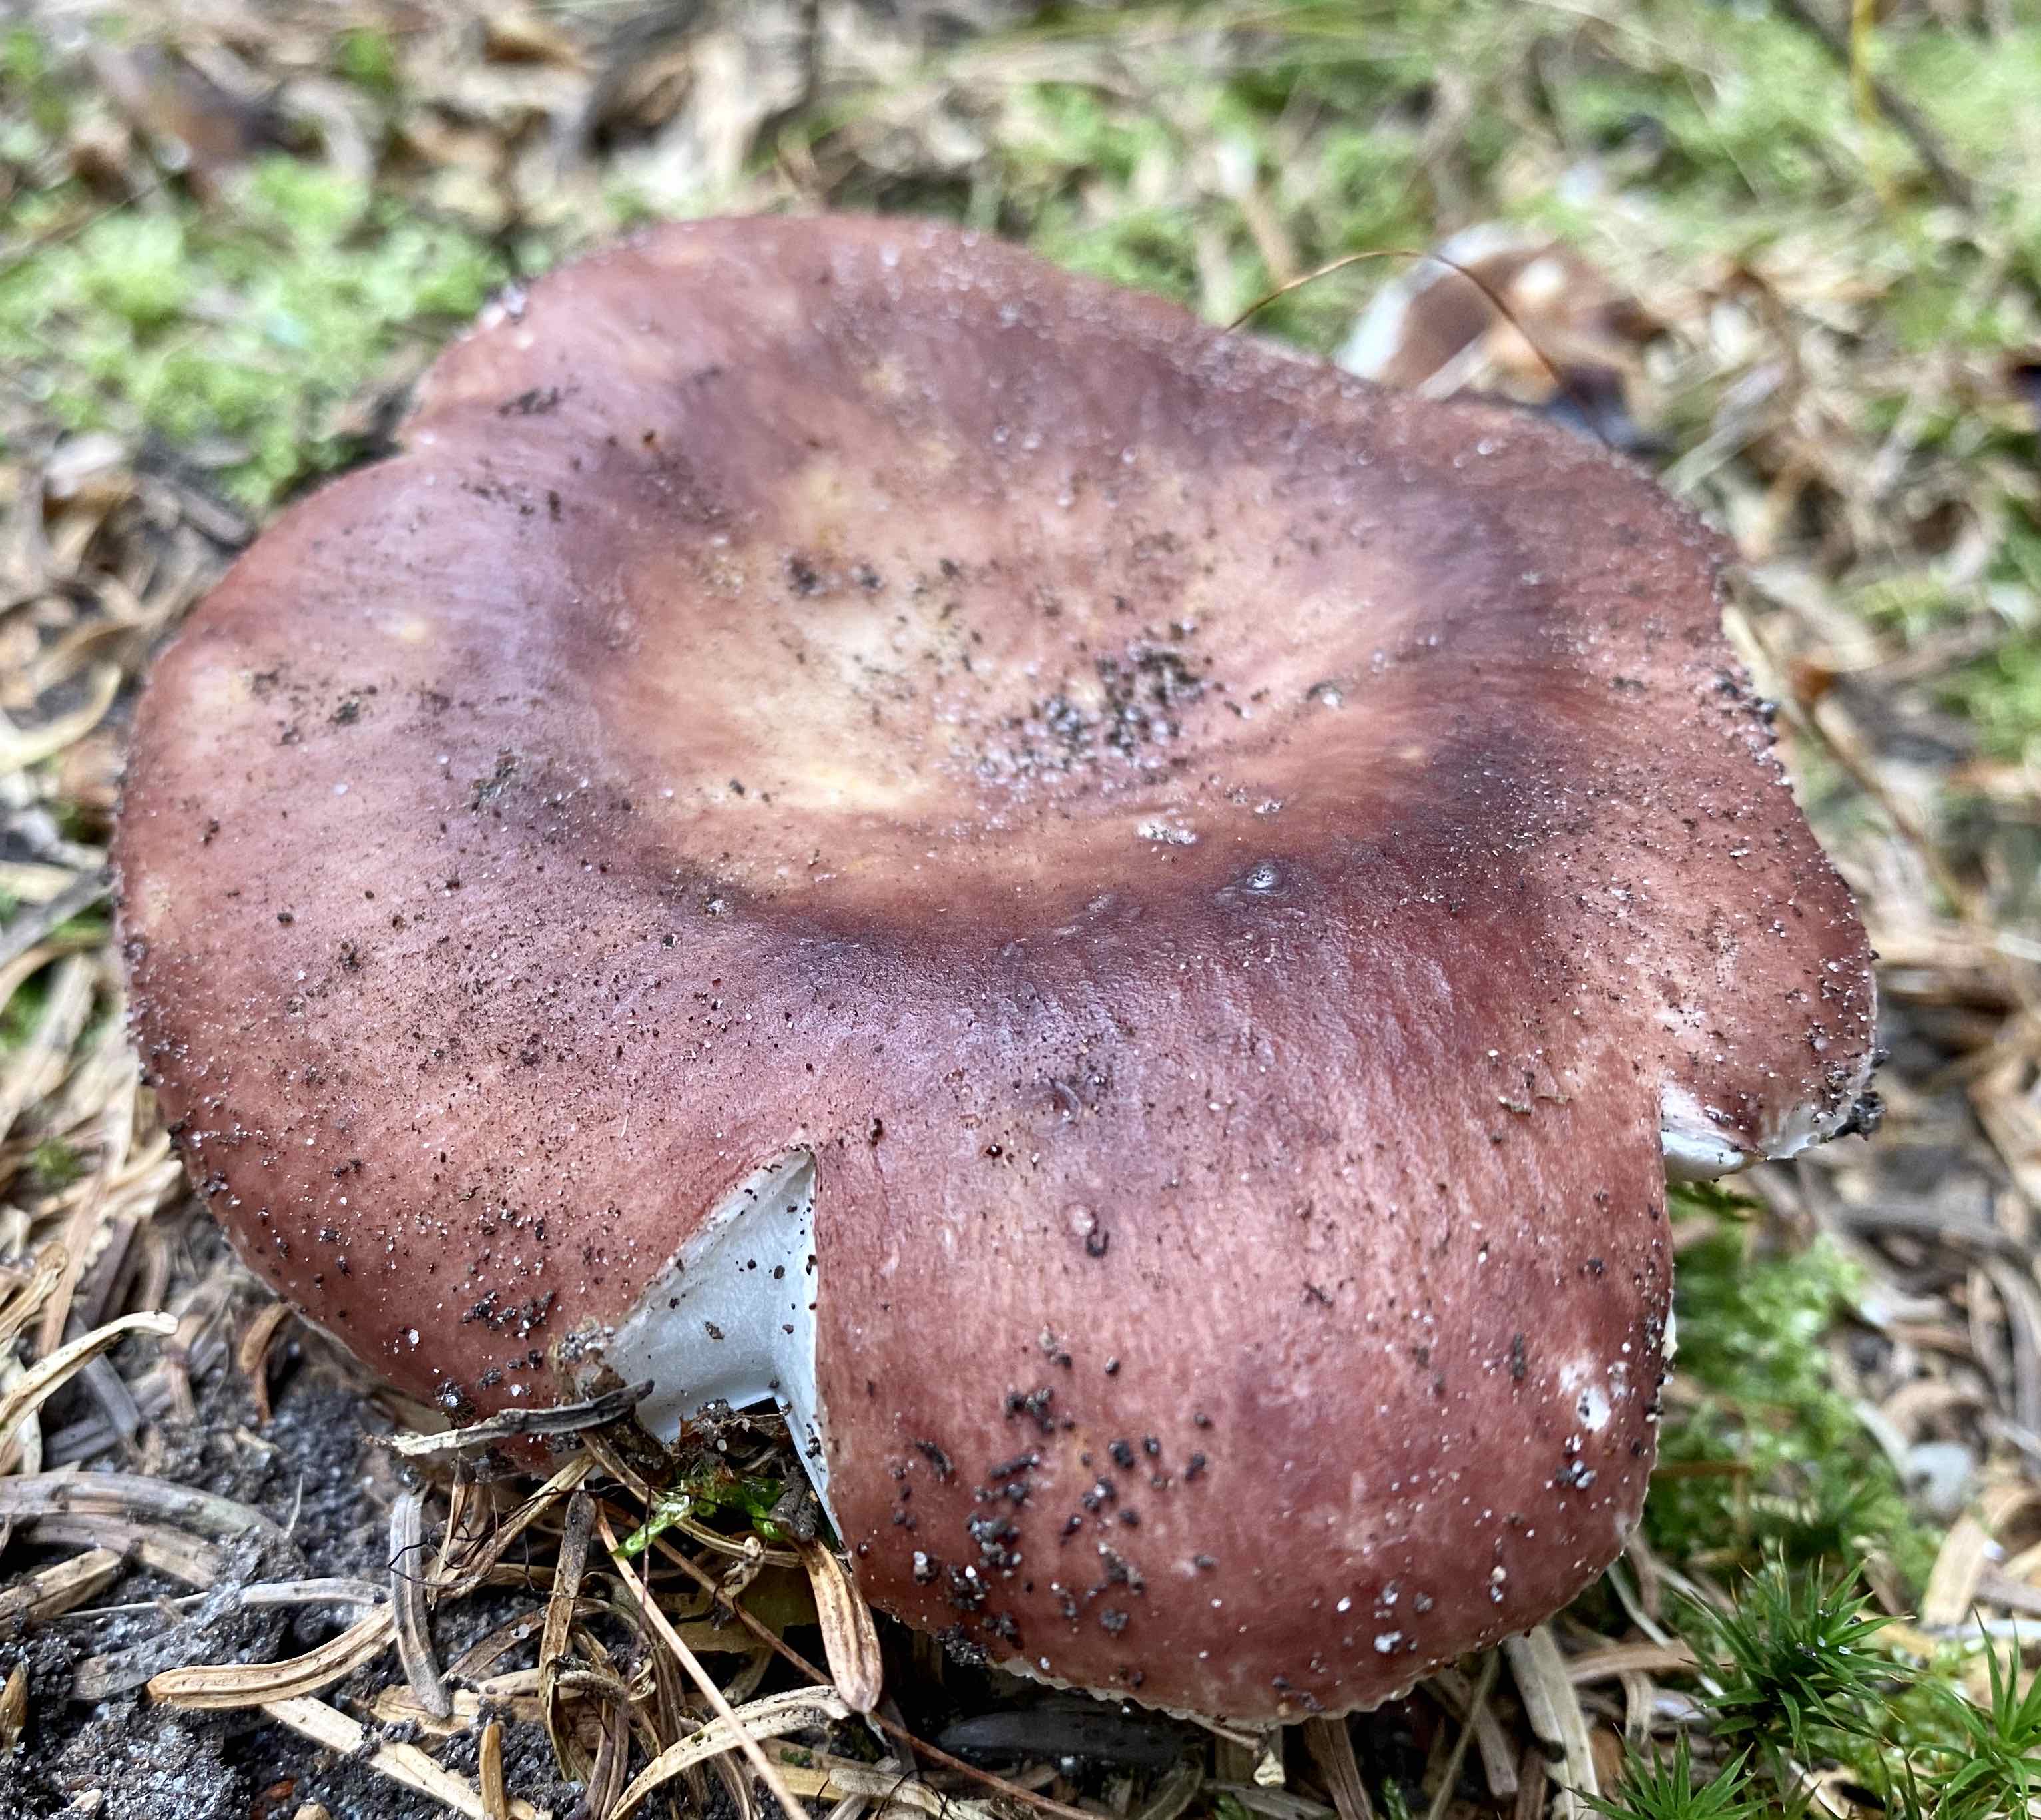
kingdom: Fungi
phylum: Basidiomycota
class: Agaricomycetes
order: Russulales
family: Russulaceae
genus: Russula
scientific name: Russula vesca
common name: spiselig skørhat
